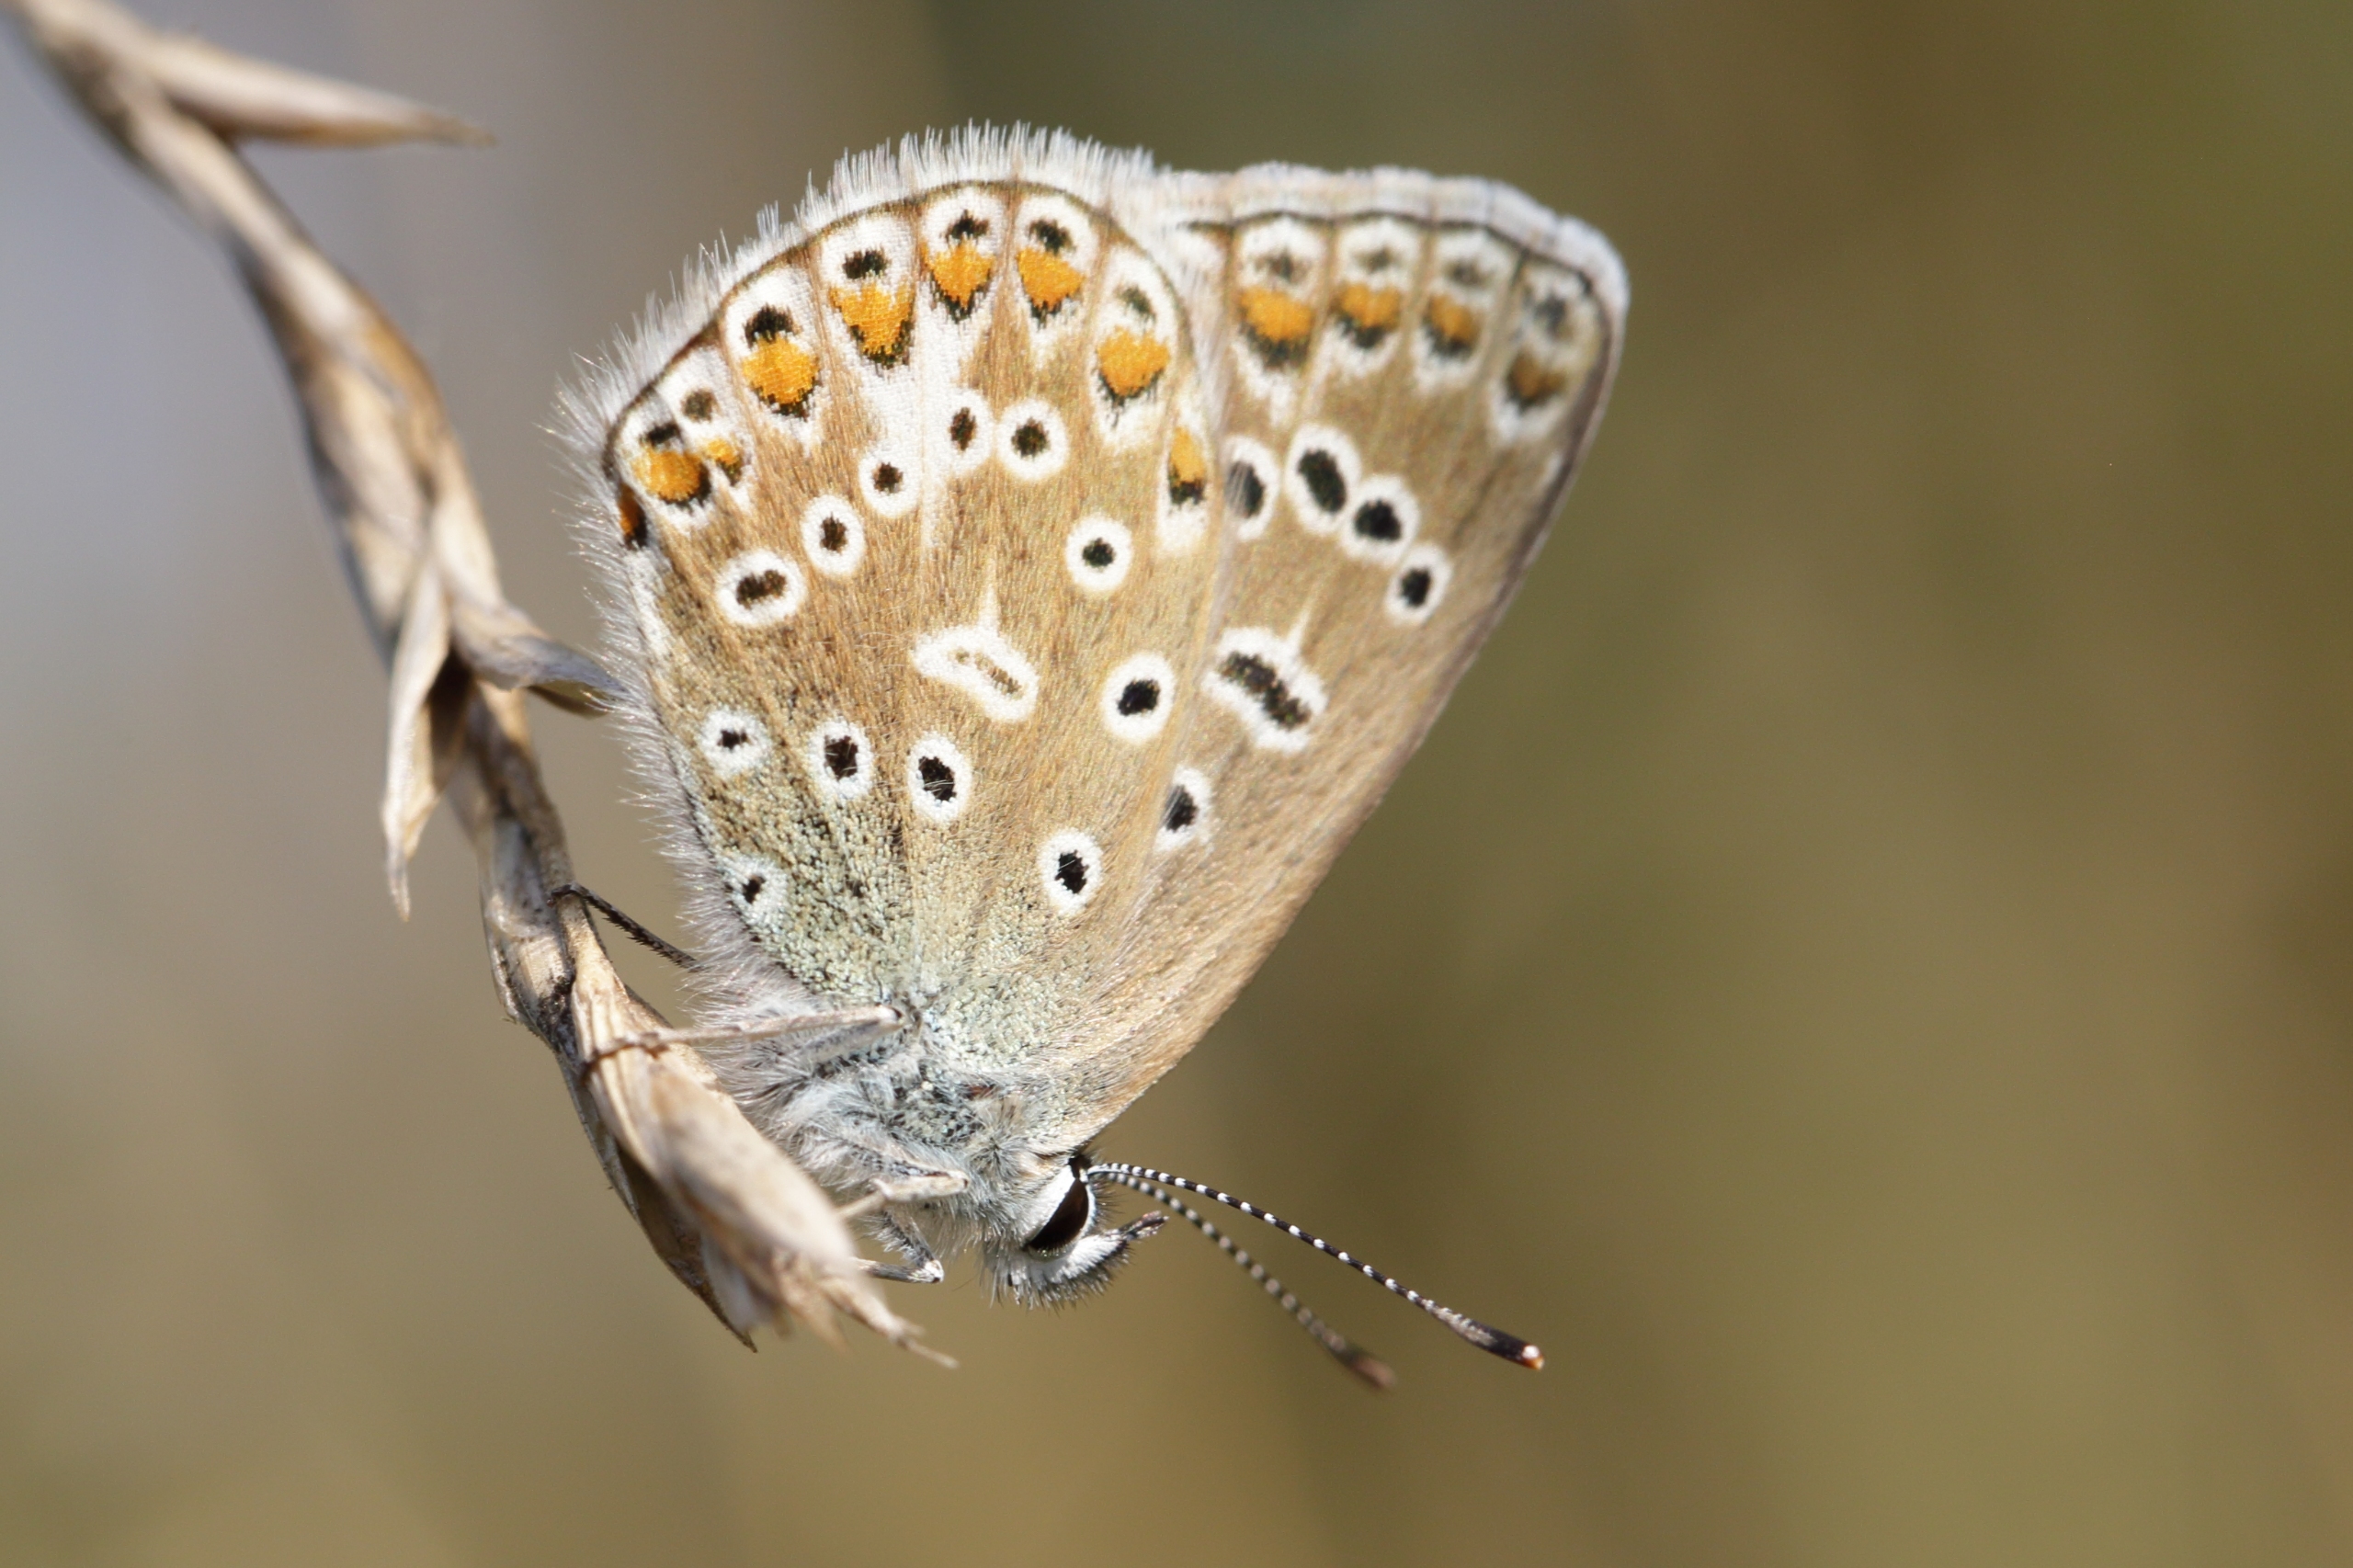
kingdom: Animalia
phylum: Arthropoda
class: Insecta
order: Lepidoptera
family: Lycaenidae
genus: Polyommatus
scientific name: Polyommatus icarus
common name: Almindelig blåfugl
